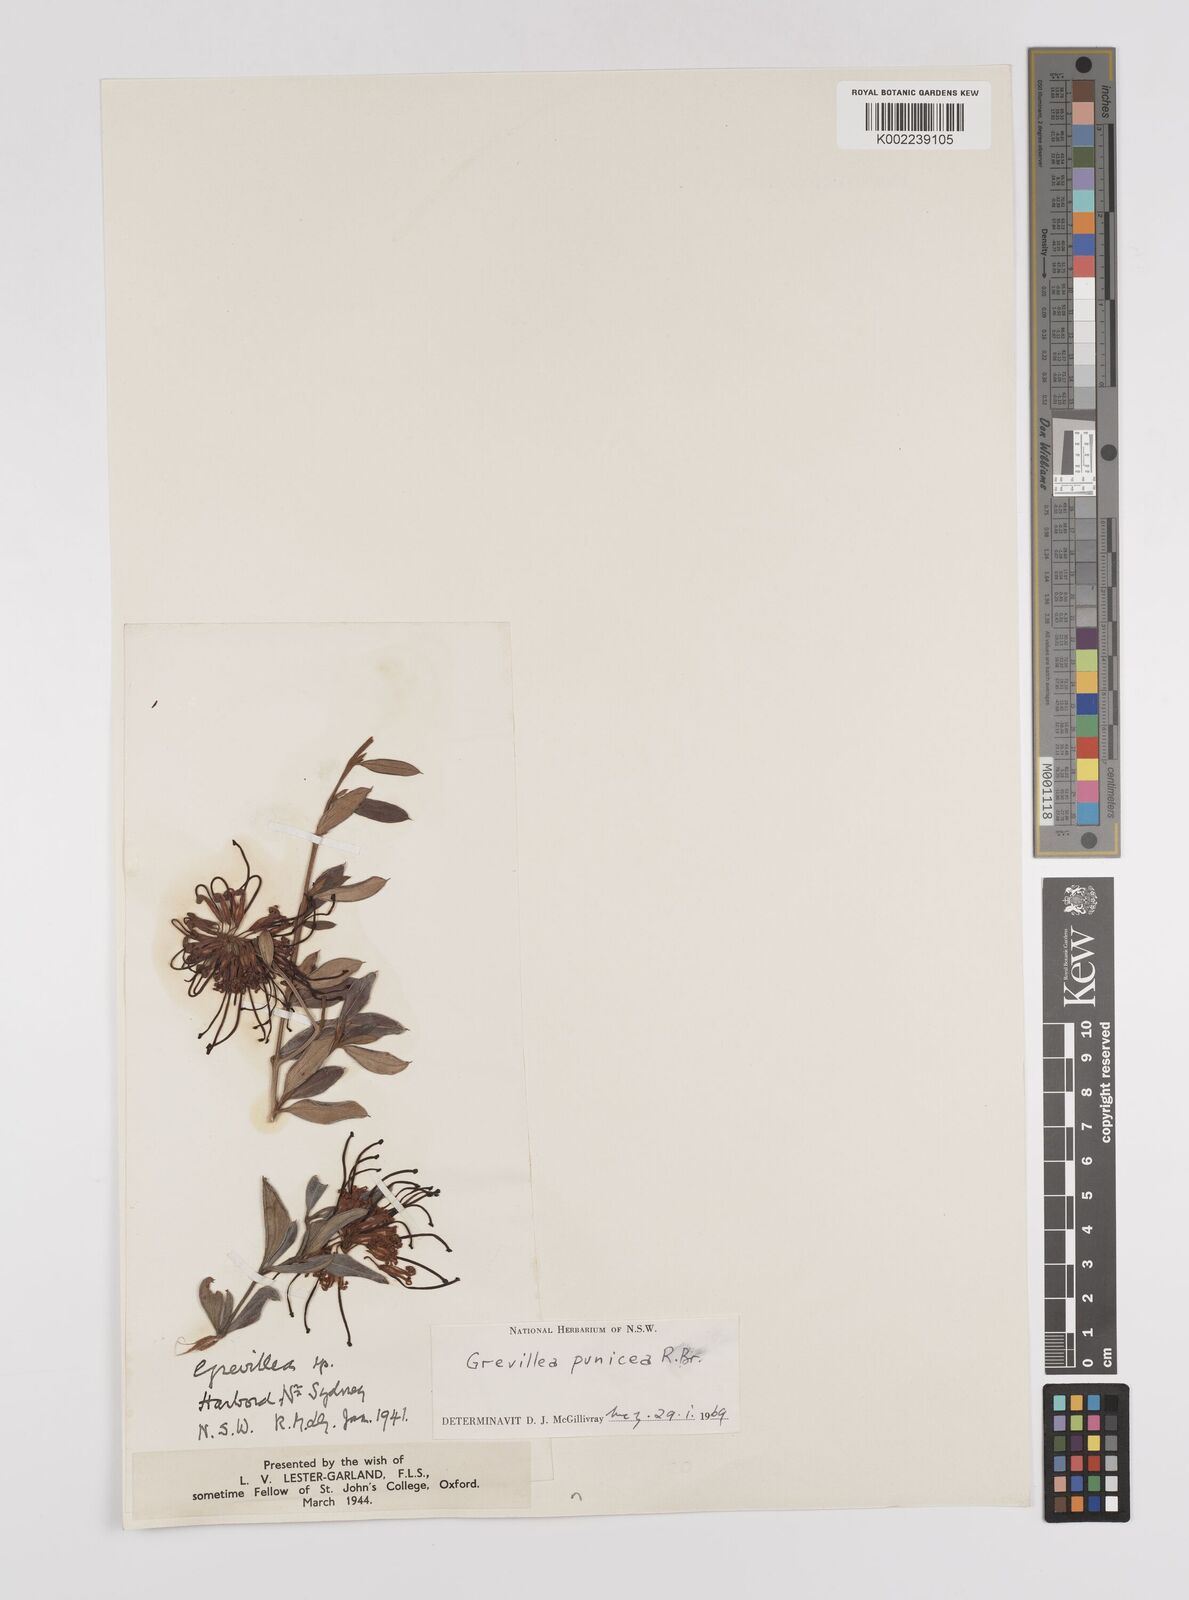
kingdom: Plantae
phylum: Tracheophyta
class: Magnoliopsida
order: Proteales
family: Proteaceae
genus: Grevillea
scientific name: Grevillea speciosa
